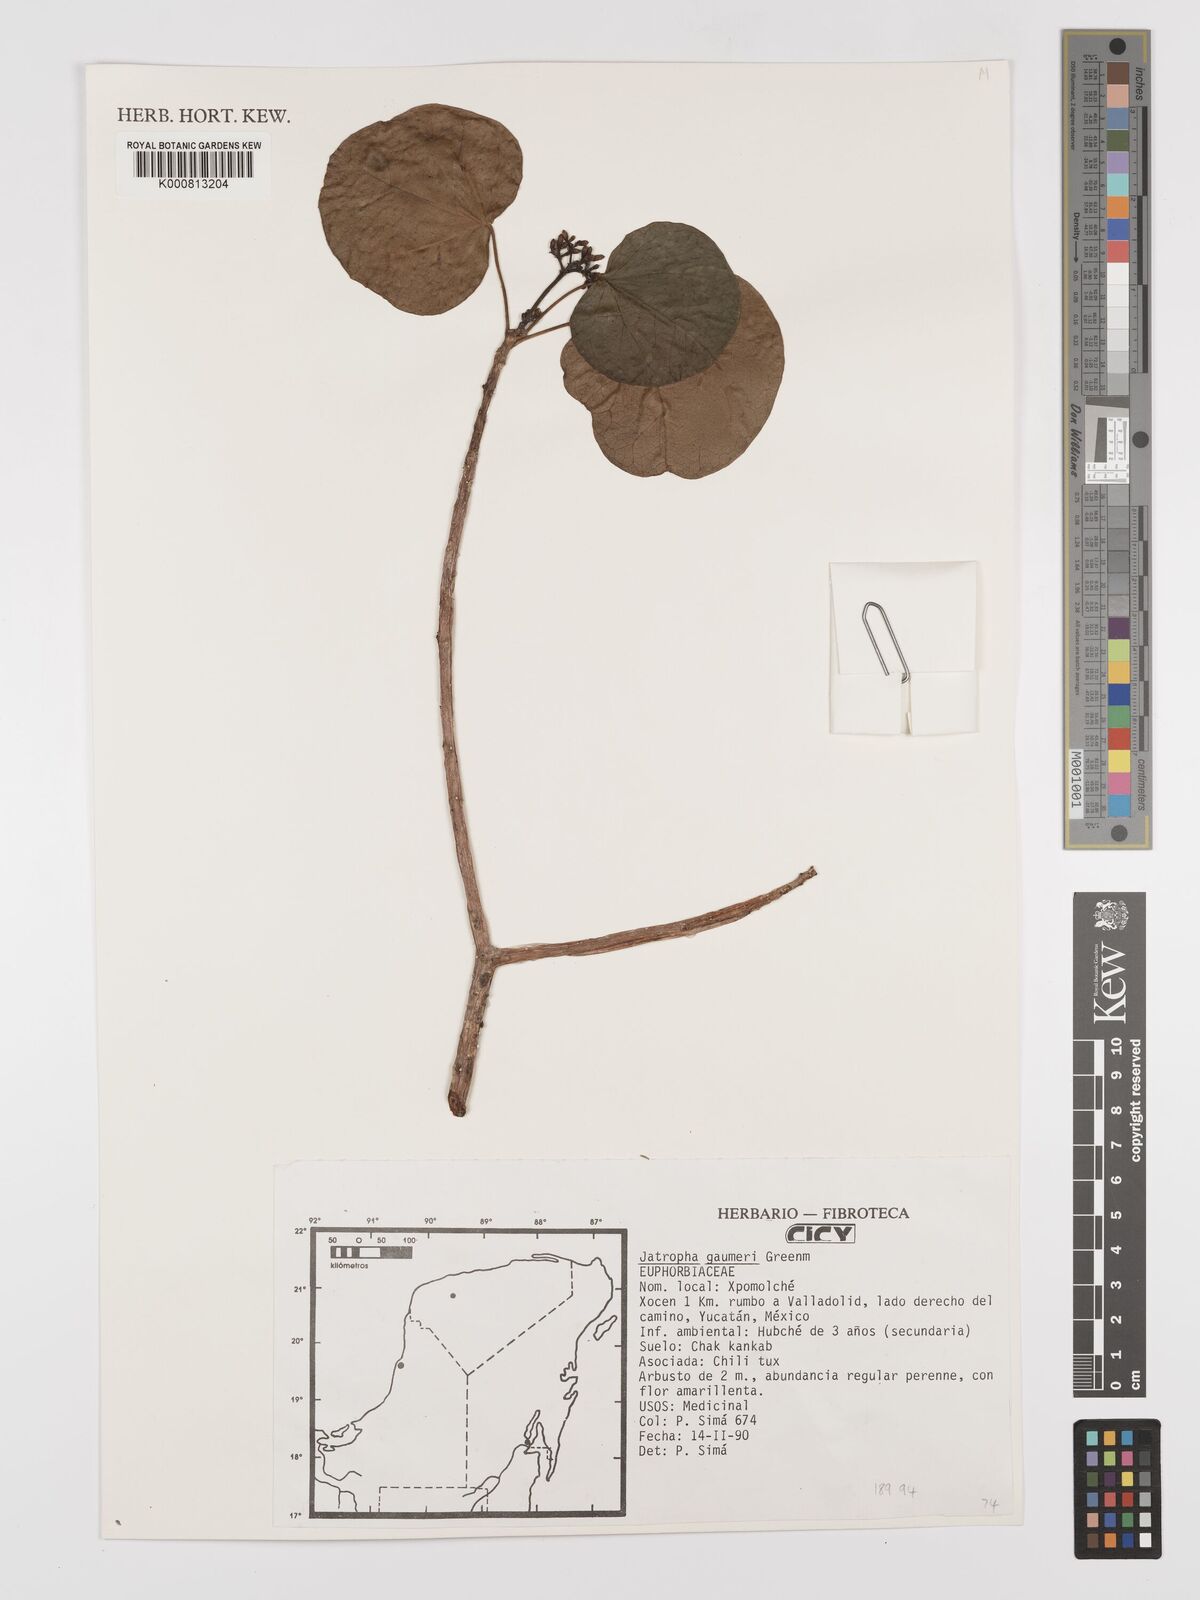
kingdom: Plantae
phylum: Tracheophyta
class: Magnoliopsida
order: Malpighiales
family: Euphorbiaceae
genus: Jatropha
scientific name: Jatropha gaumeri
